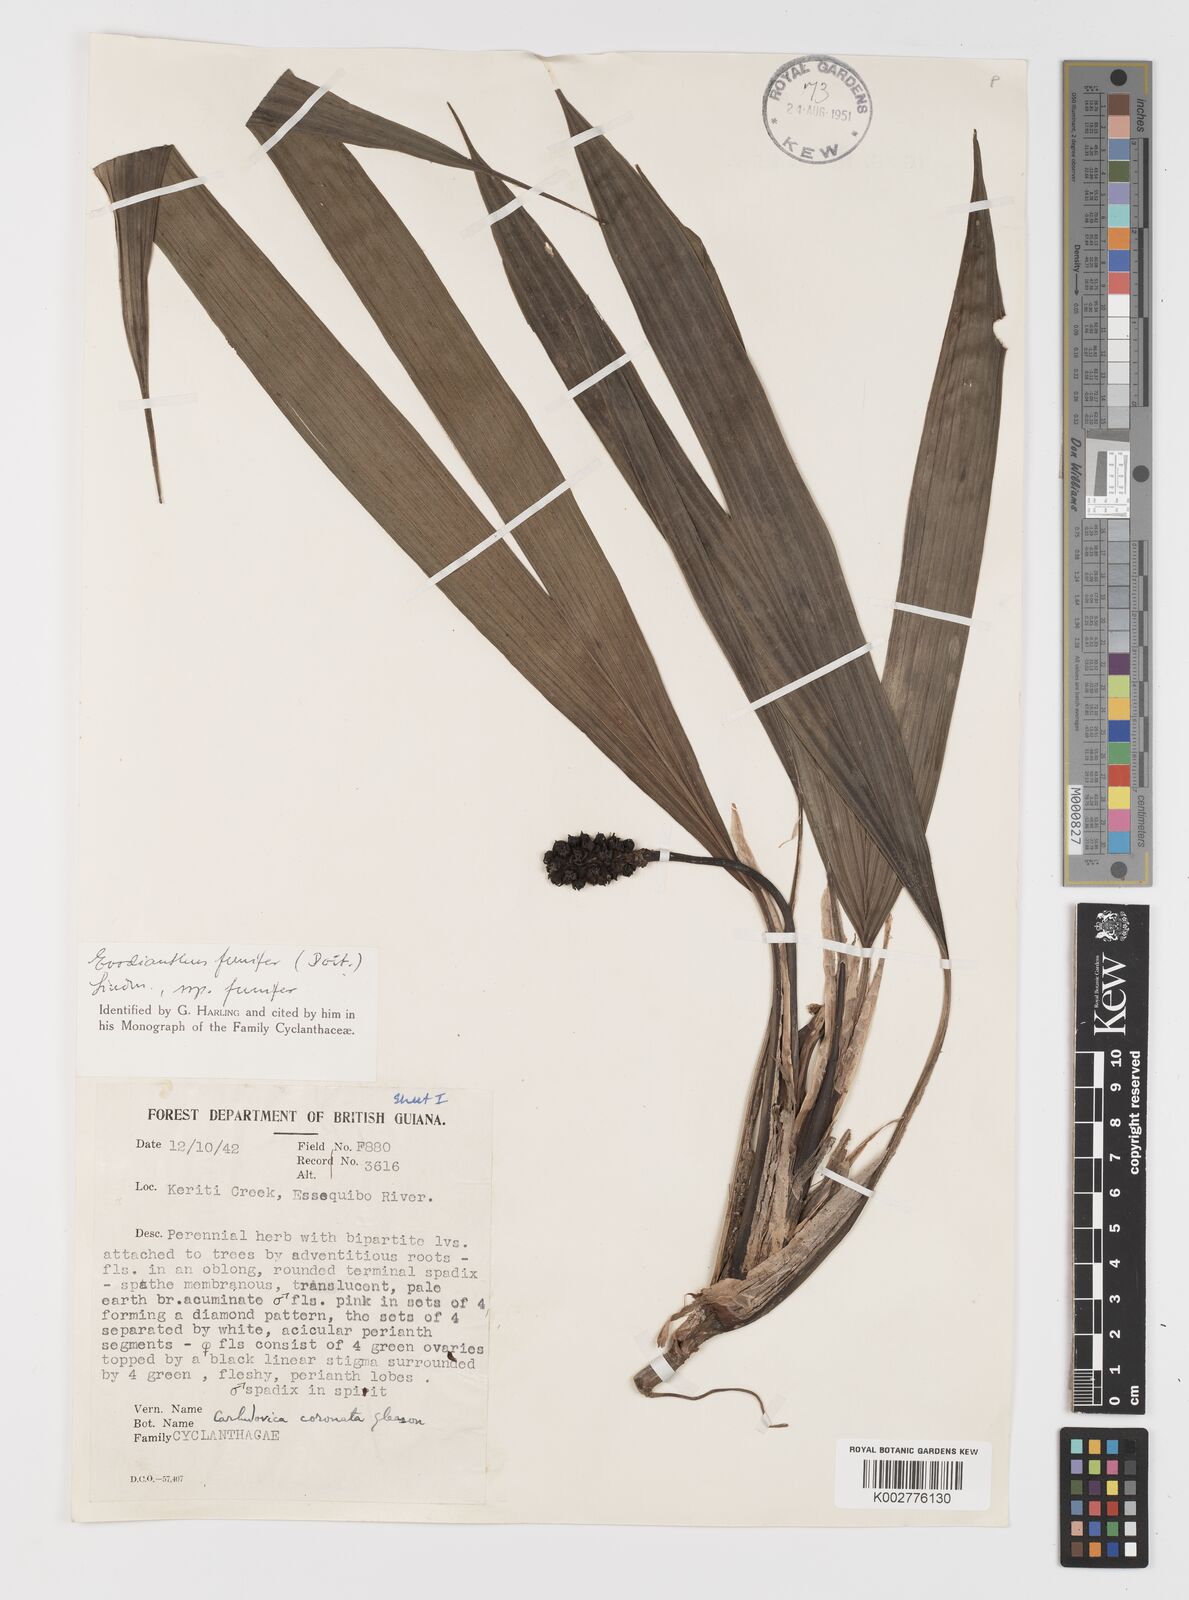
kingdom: Plantae
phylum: Tracheophyta
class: Liliopsida
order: Pandanales
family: Cyclanthaceae
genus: Evodianthus
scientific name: Evodianthus funifer
